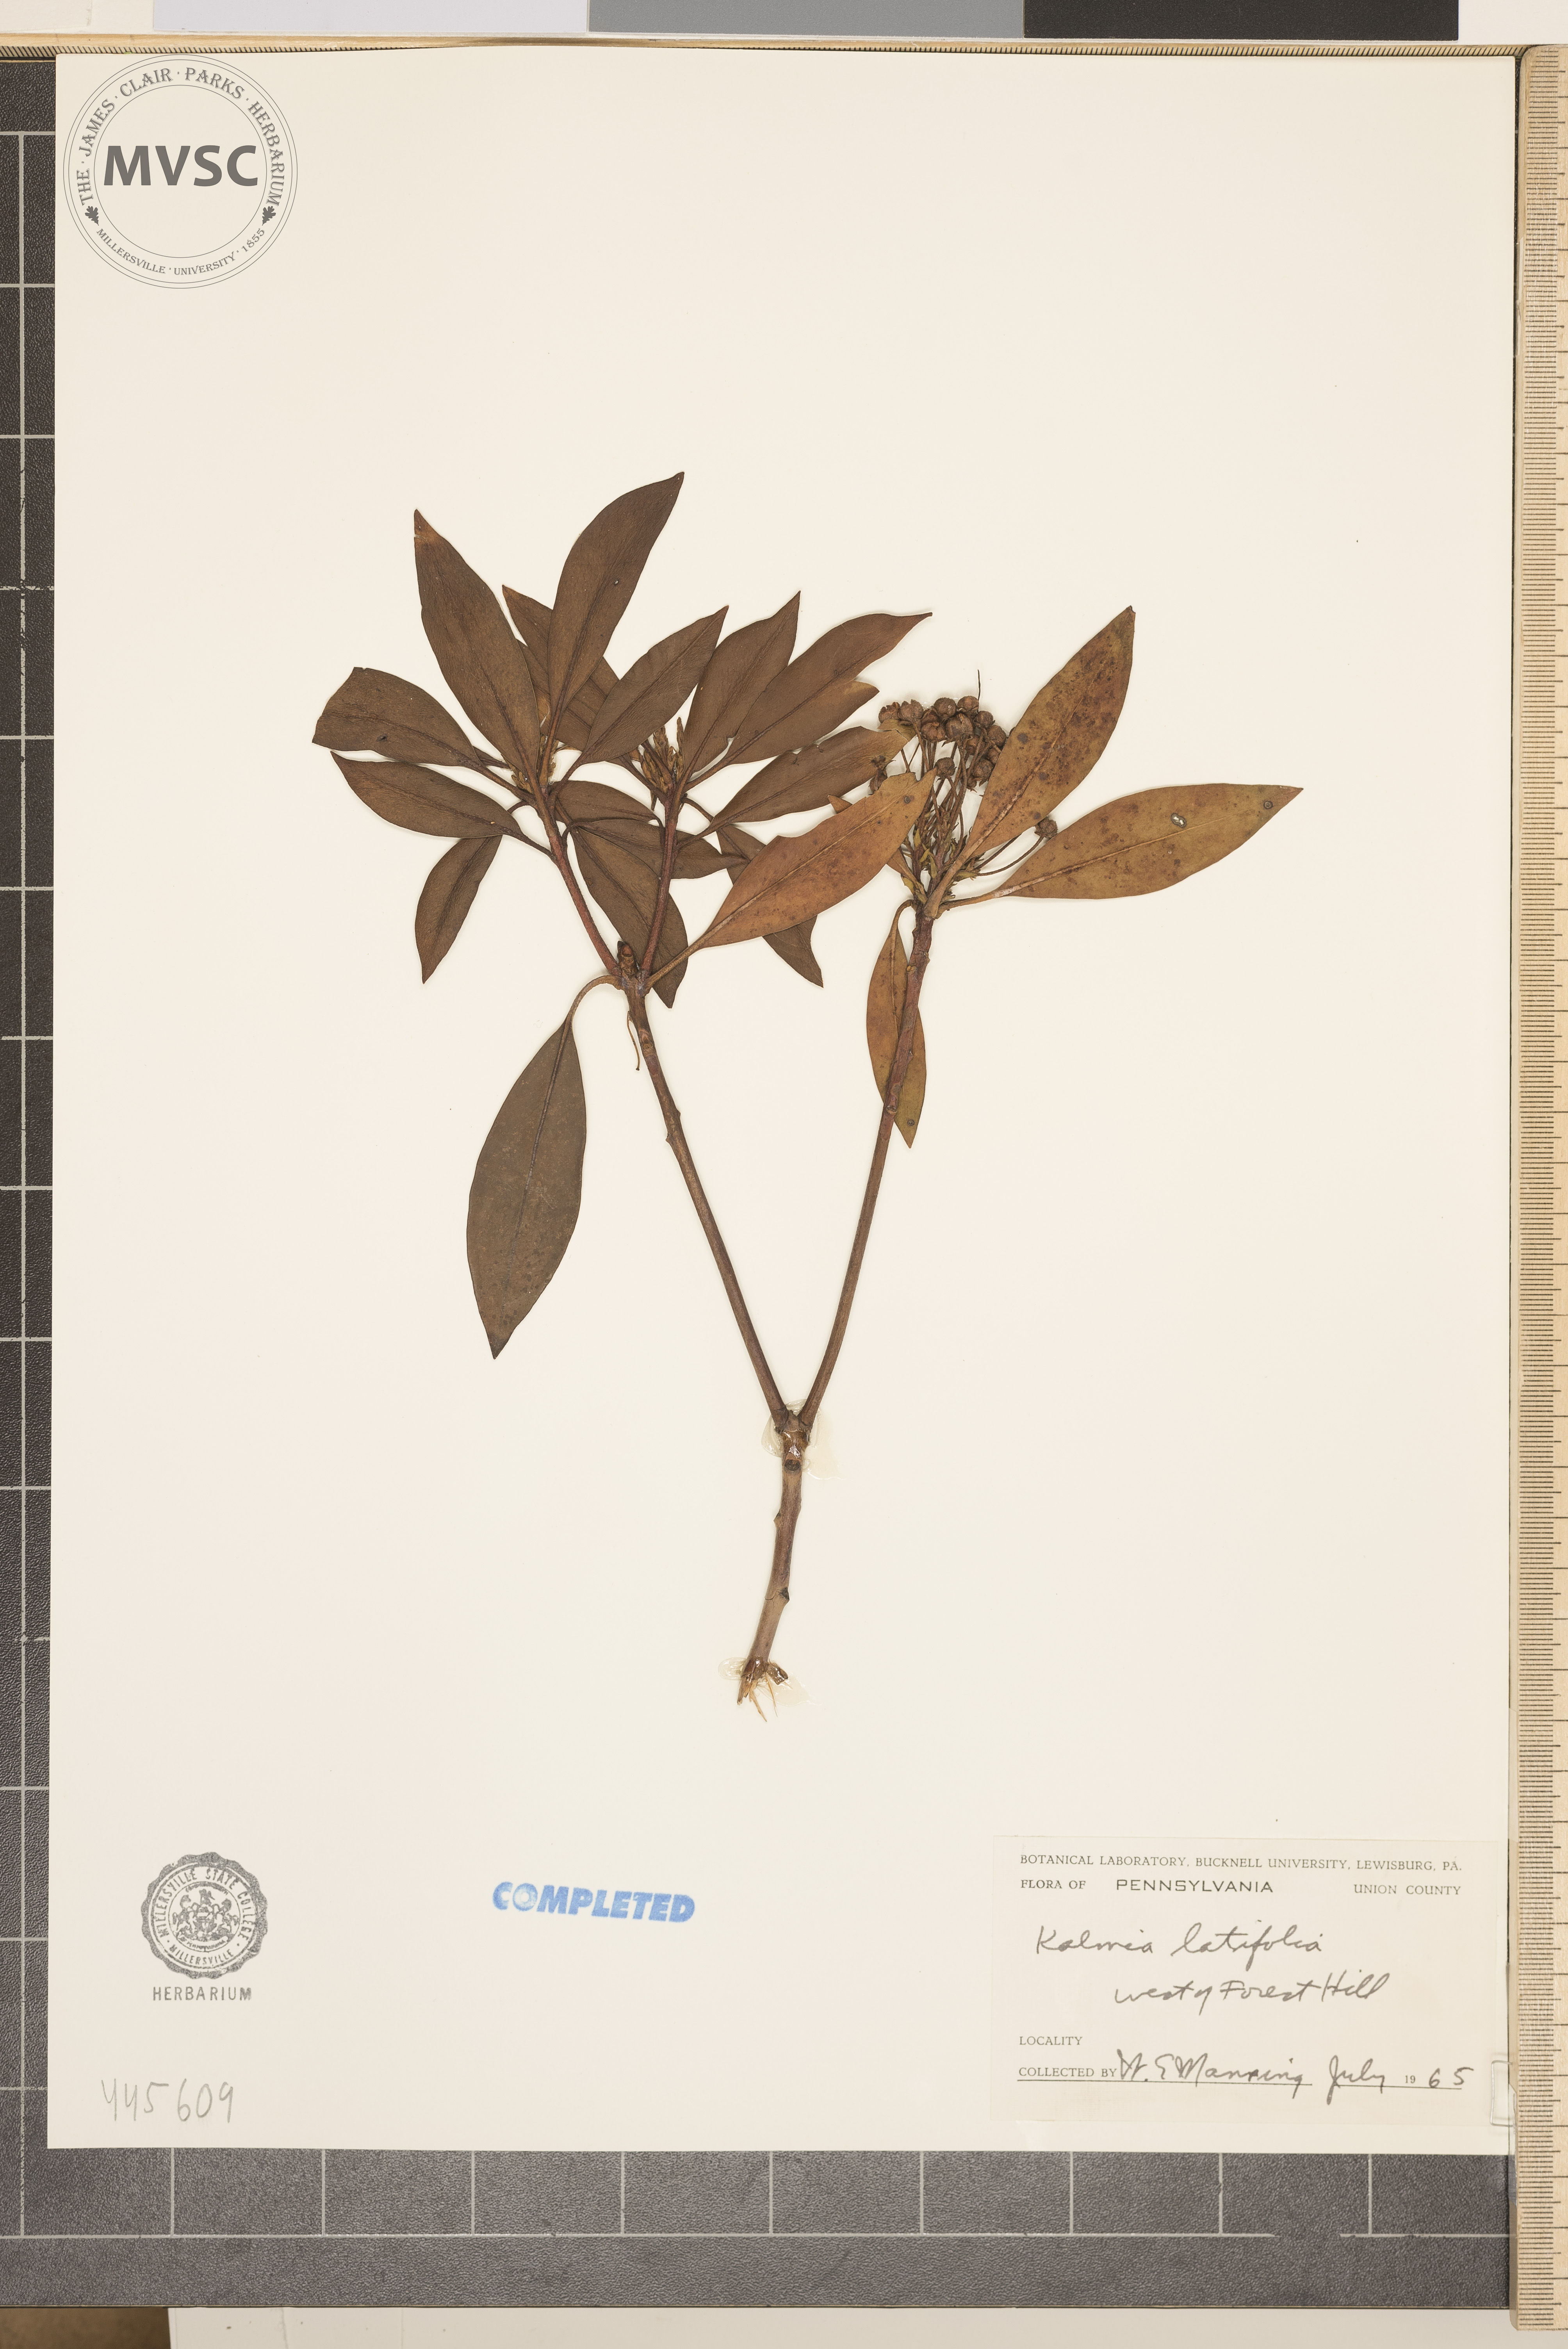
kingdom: Plantae
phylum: Tracheophyta
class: Magnoliopsida
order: Ericales
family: Ericaceae
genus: Kalmia
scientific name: Kalmia latifolia
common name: Mountain-laurel
